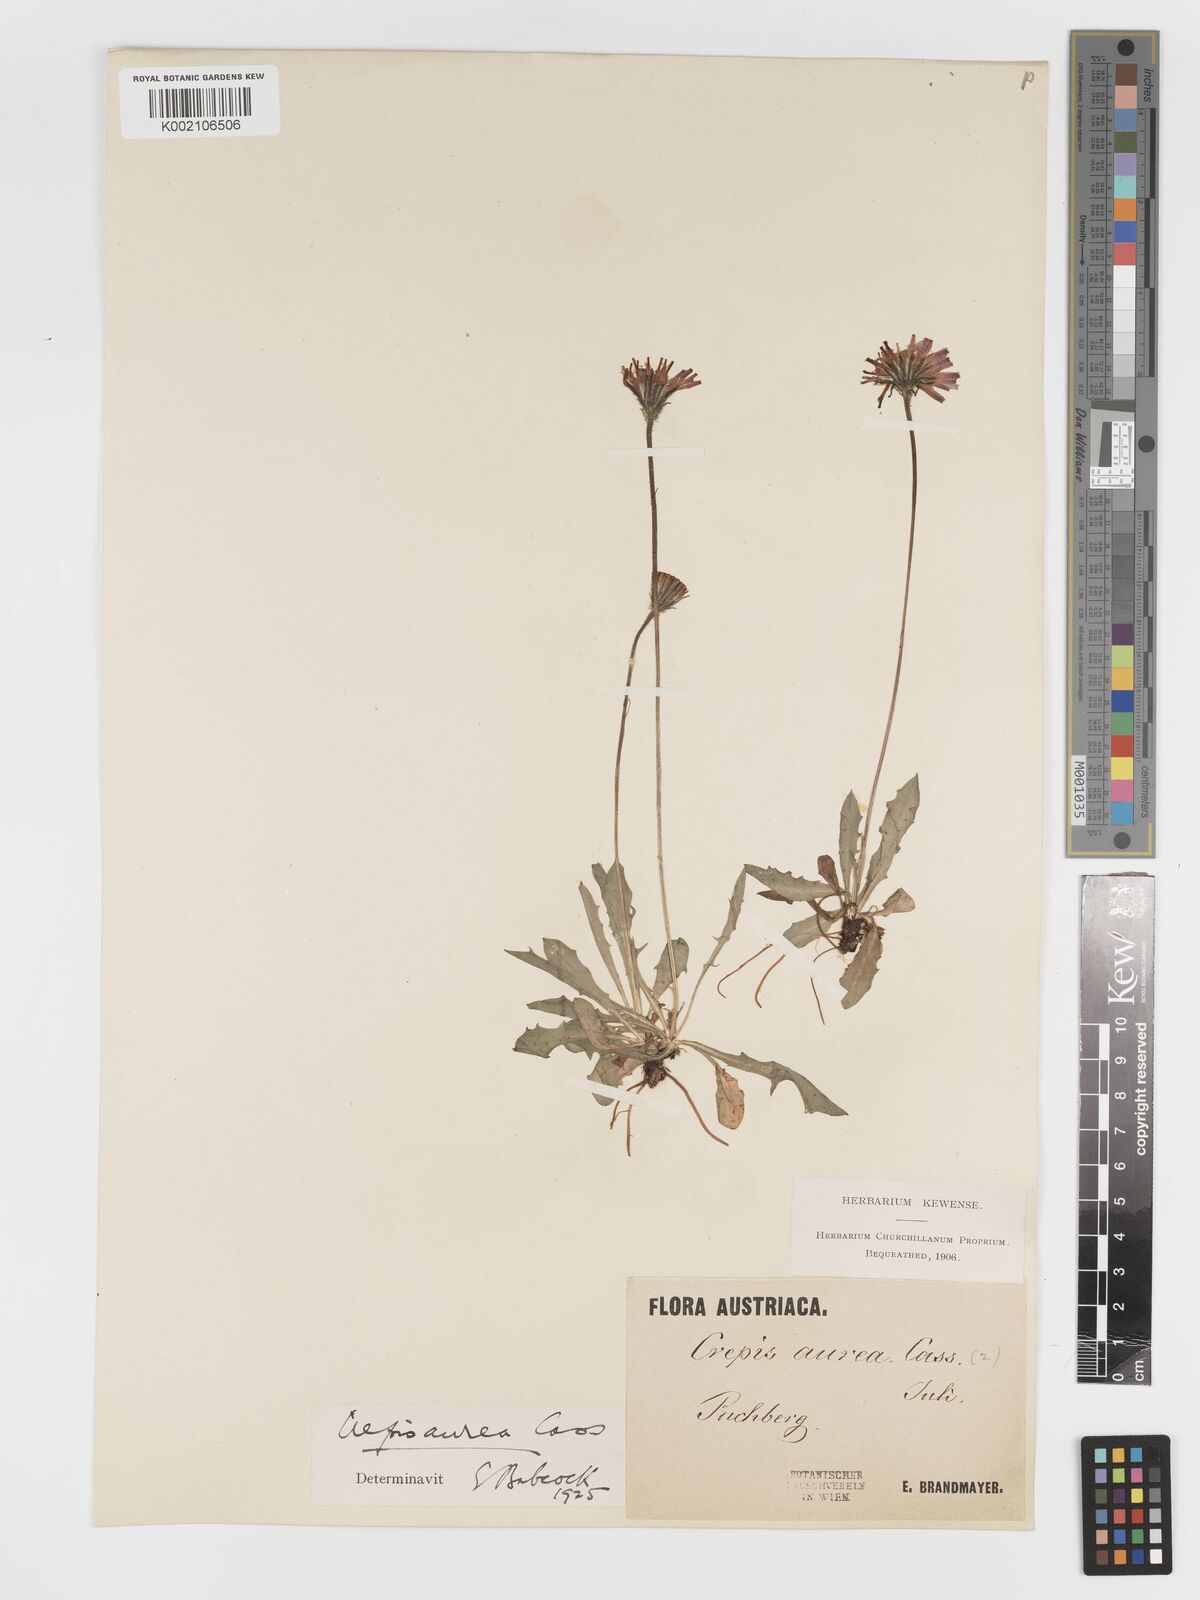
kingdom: Plantae
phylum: Tracheophyta
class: Magnoliopsida
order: Asterales
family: Asteraceae
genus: Crepis
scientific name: Crepis aurea
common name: Golden hawk's-beard
